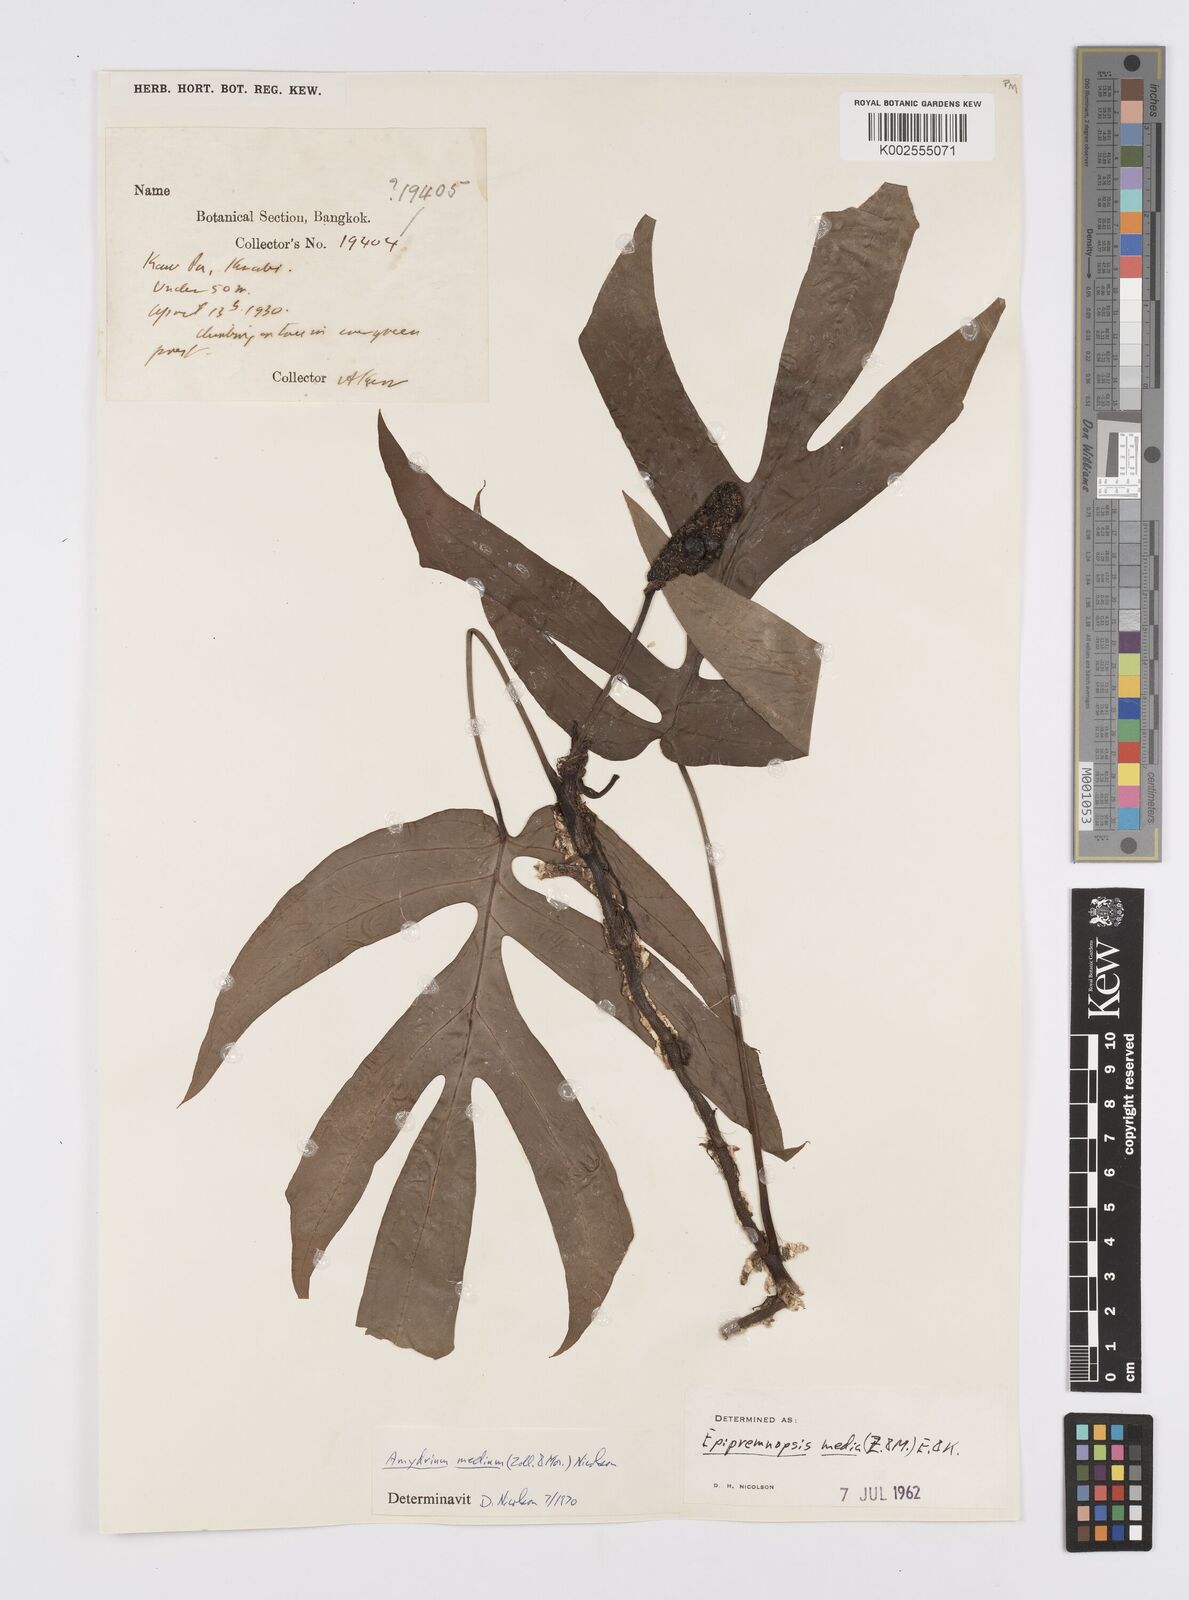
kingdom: Plantae
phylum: Tracheophyta
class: Liliopsida
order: Alismatales
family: Araceae
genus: Amydrium
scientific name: Amydrium medium
